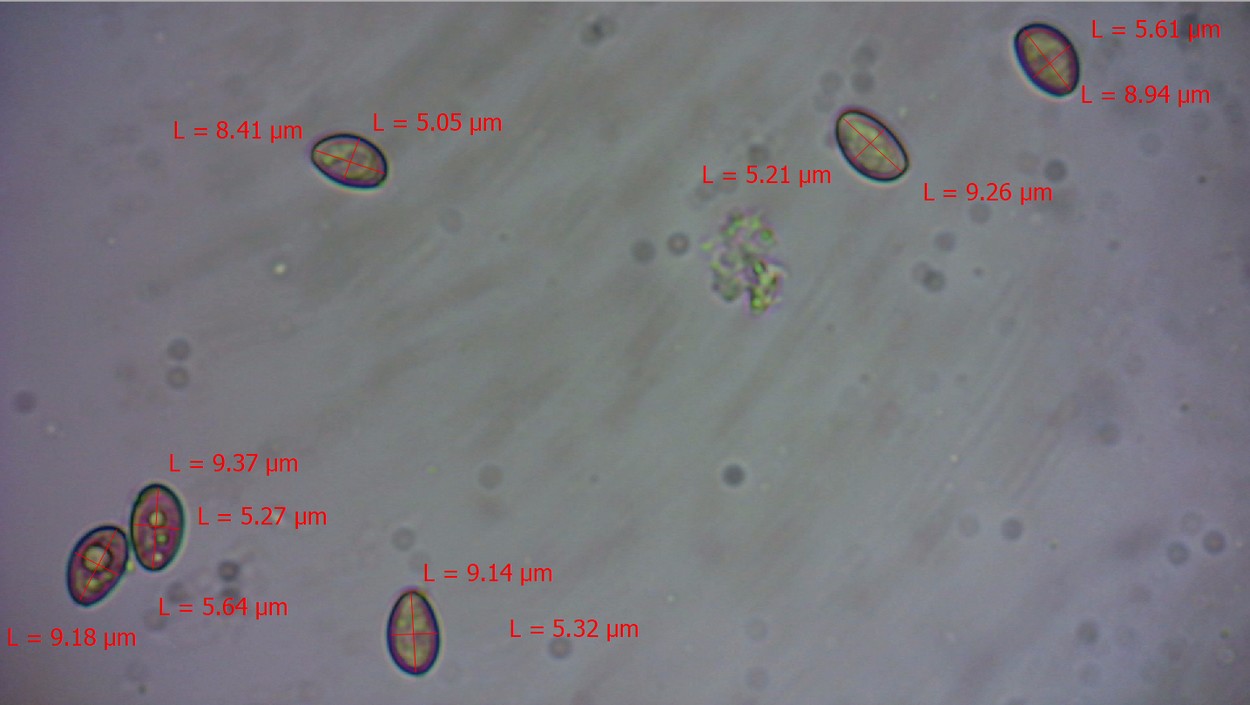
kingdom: Fungi
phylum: Basidiomycota
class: Agaricomycetes
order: Agaricales
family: Strophariaceae
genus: Hypholoma
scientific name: Hypholoma elongatum
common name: slank svovlhat
